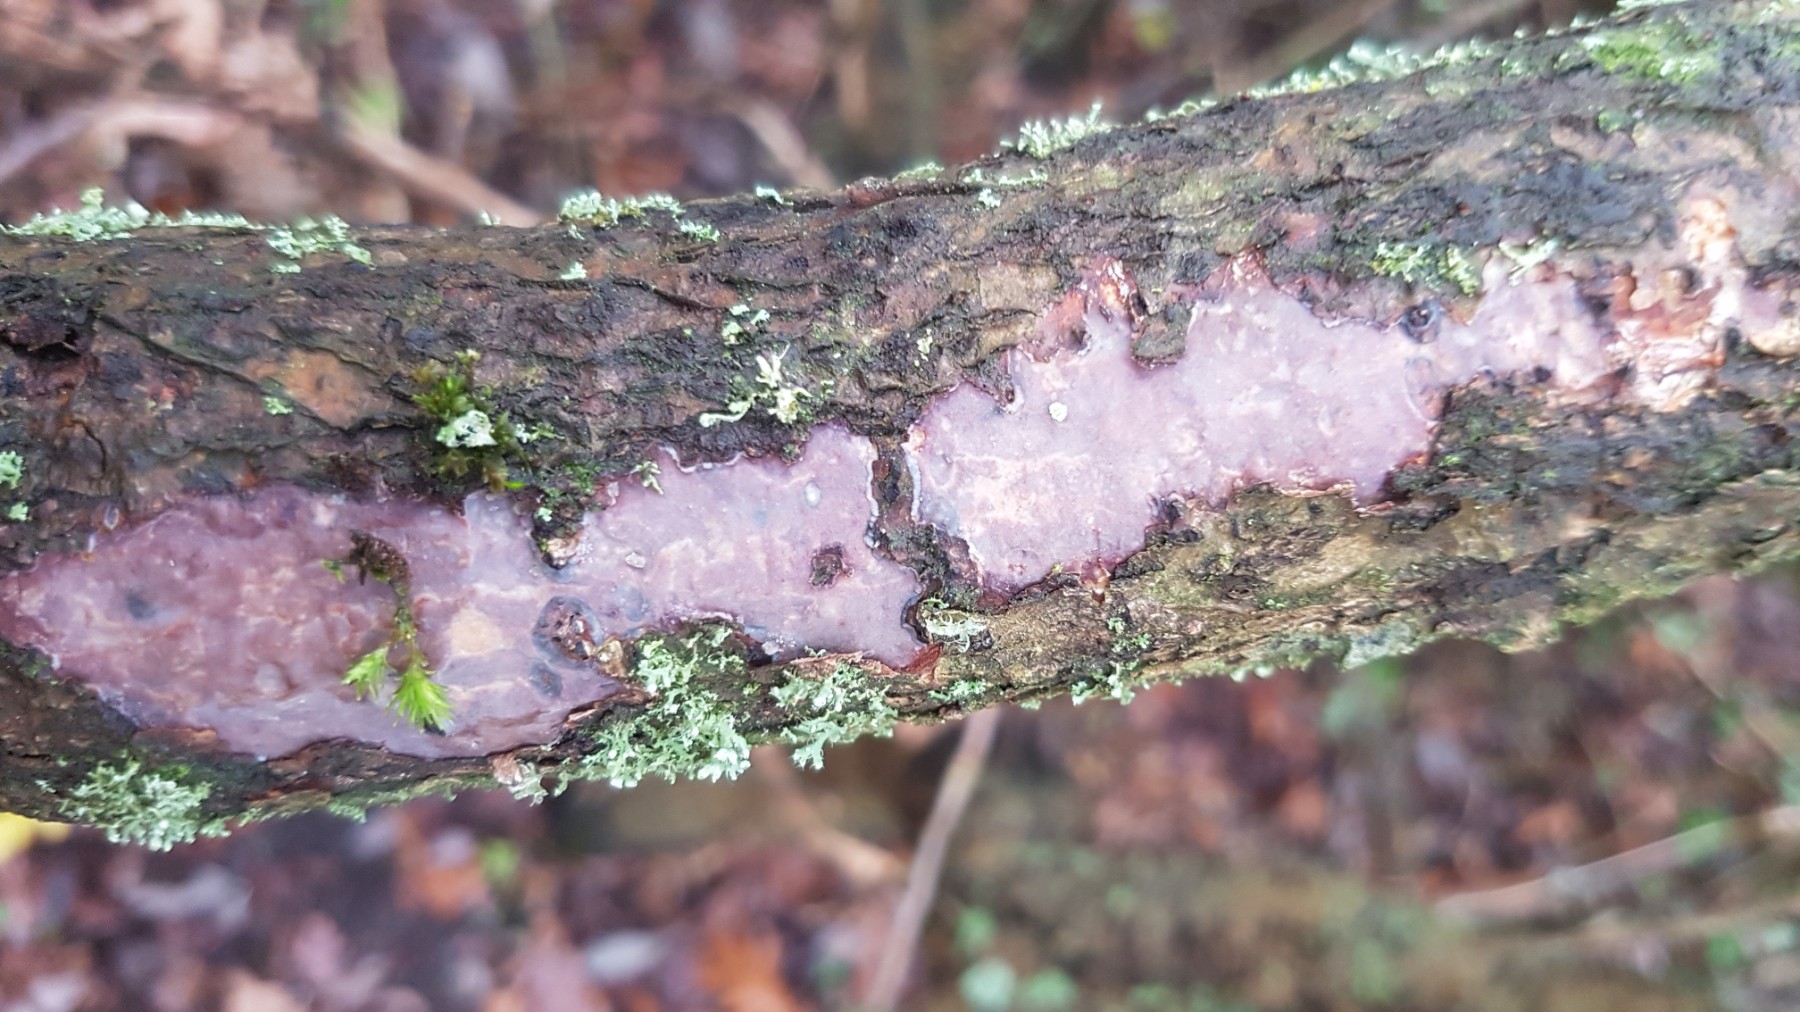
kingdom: Fungi
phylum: Basidiomycota
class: Agaricomycetes
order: Corticiales
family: Vuilleminiaceae
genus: Vuilleminia
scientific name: Vuilleminia comedens
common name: almindelig barksprænger
